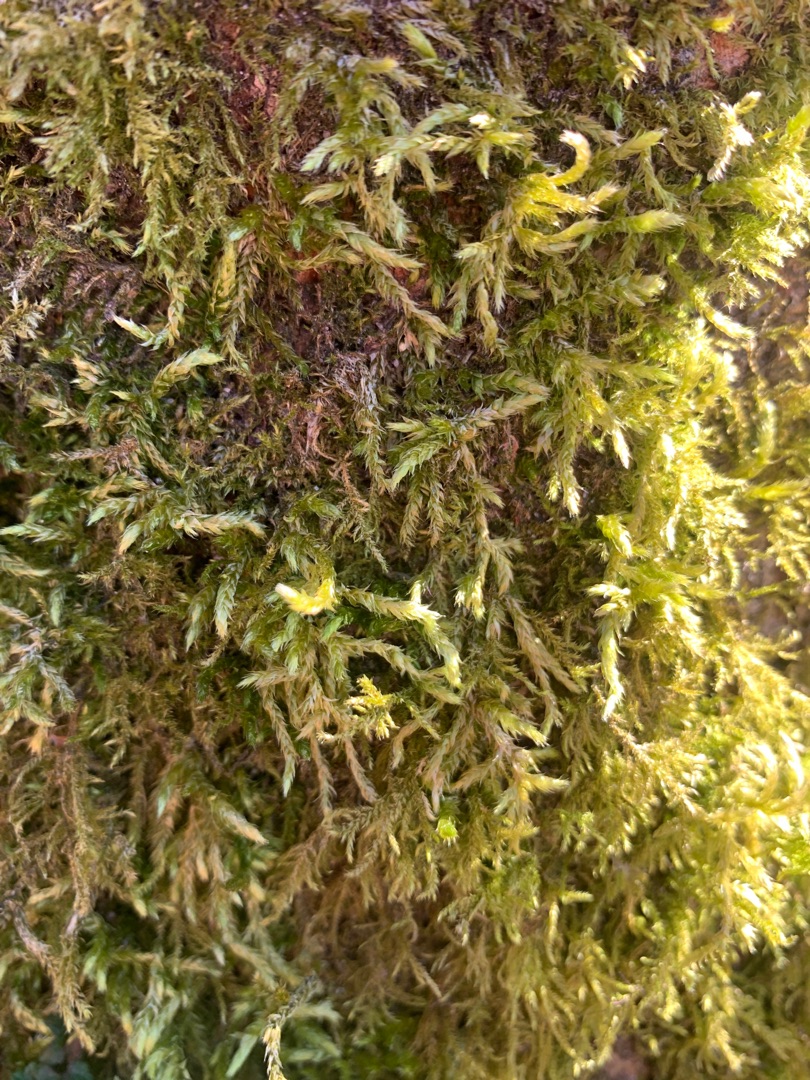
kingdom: Plantae
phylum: Bryophyta
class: Bryopsida
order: Hypnales
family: Brachytheciaceae
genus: Brachythecium
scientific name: Brachythecium rutabulum
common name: Almindelig kortkapsel
